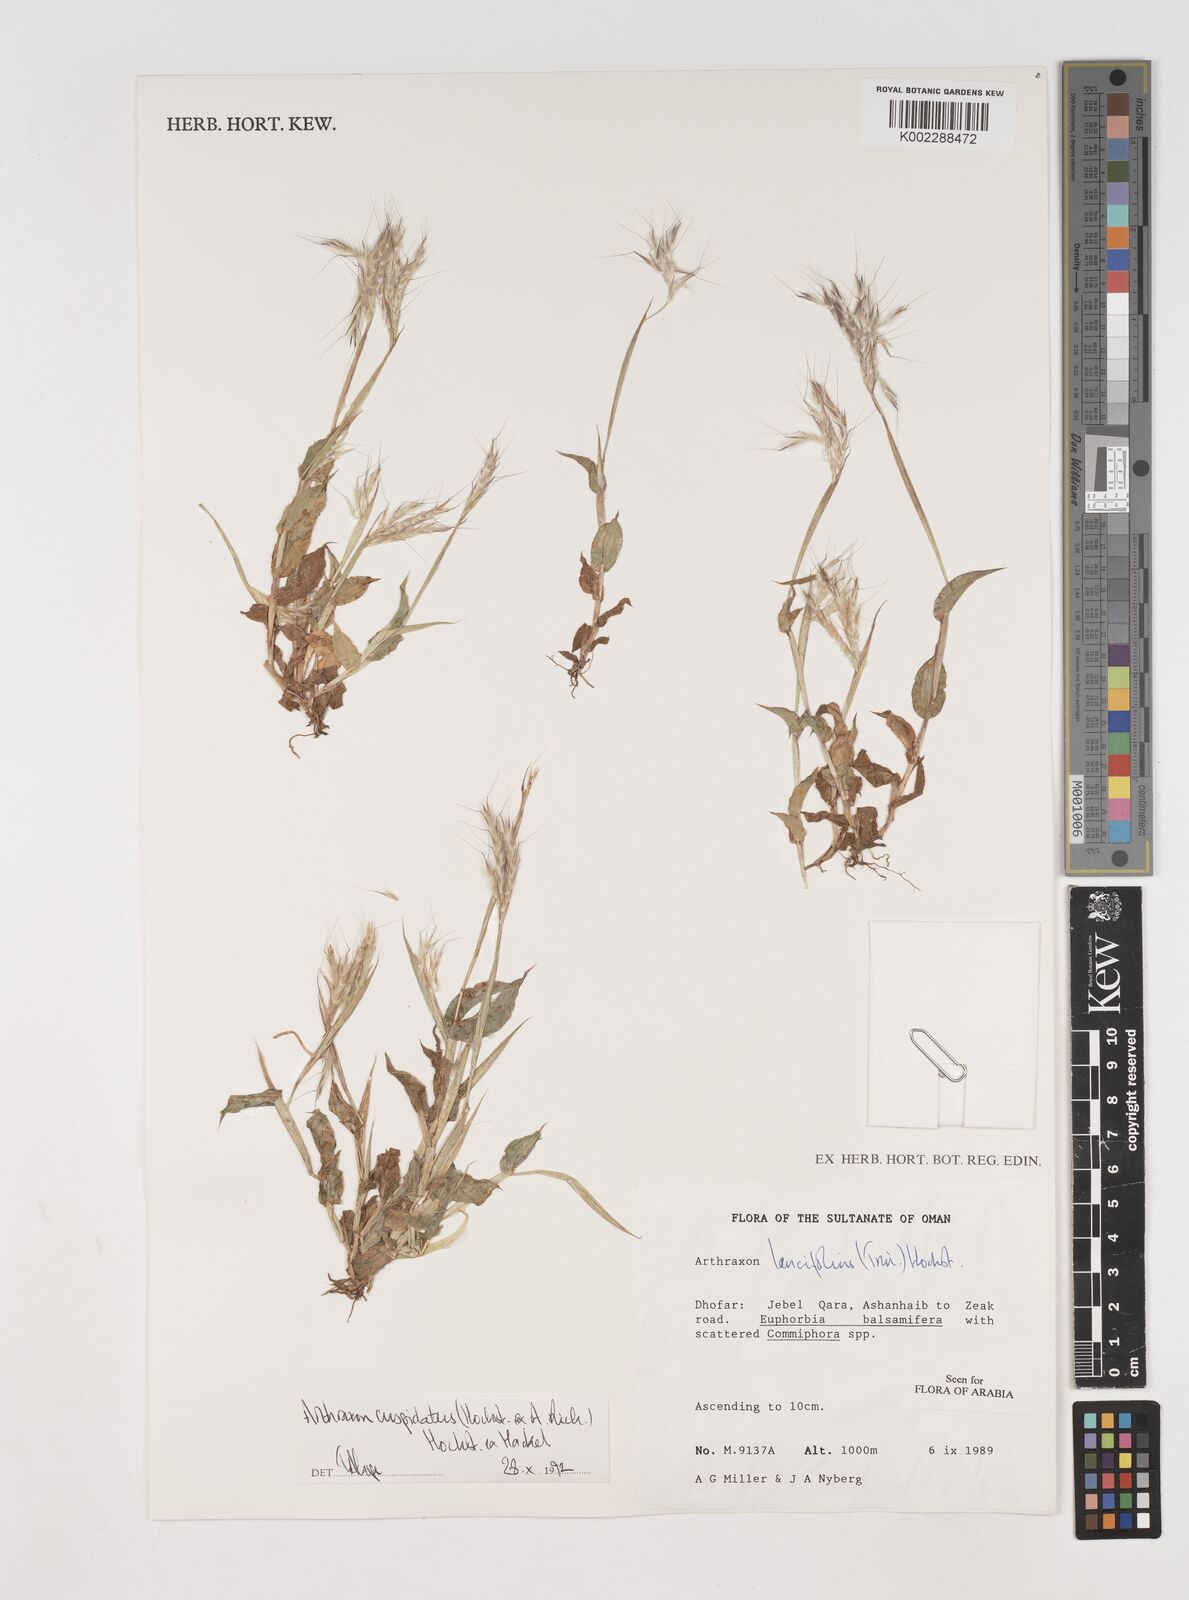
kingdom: Plantae
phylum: Tracheophyta
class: Liliopsida
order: Poales
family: Poaceae
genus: Arthraxon
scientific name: Arthraxon cuspidatus
